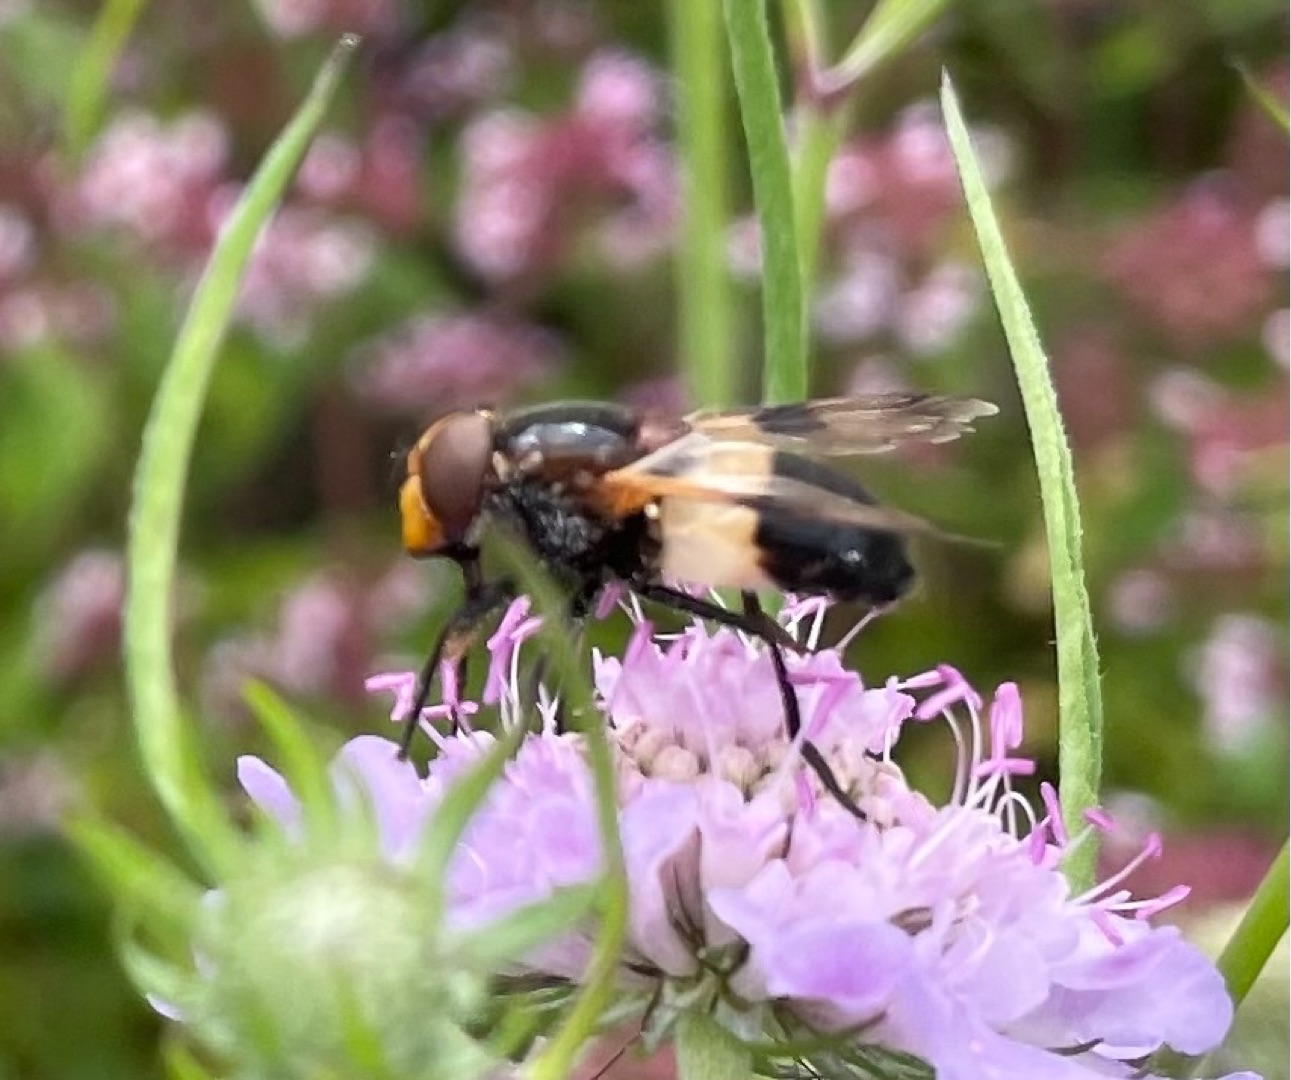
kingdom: Animalia
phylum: Arthropoda
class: Insecta
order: Diptera
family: Syrphidae
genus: Volucella
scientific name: Volucella pellucens
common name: Hvidbåndet humlesvirreflue
